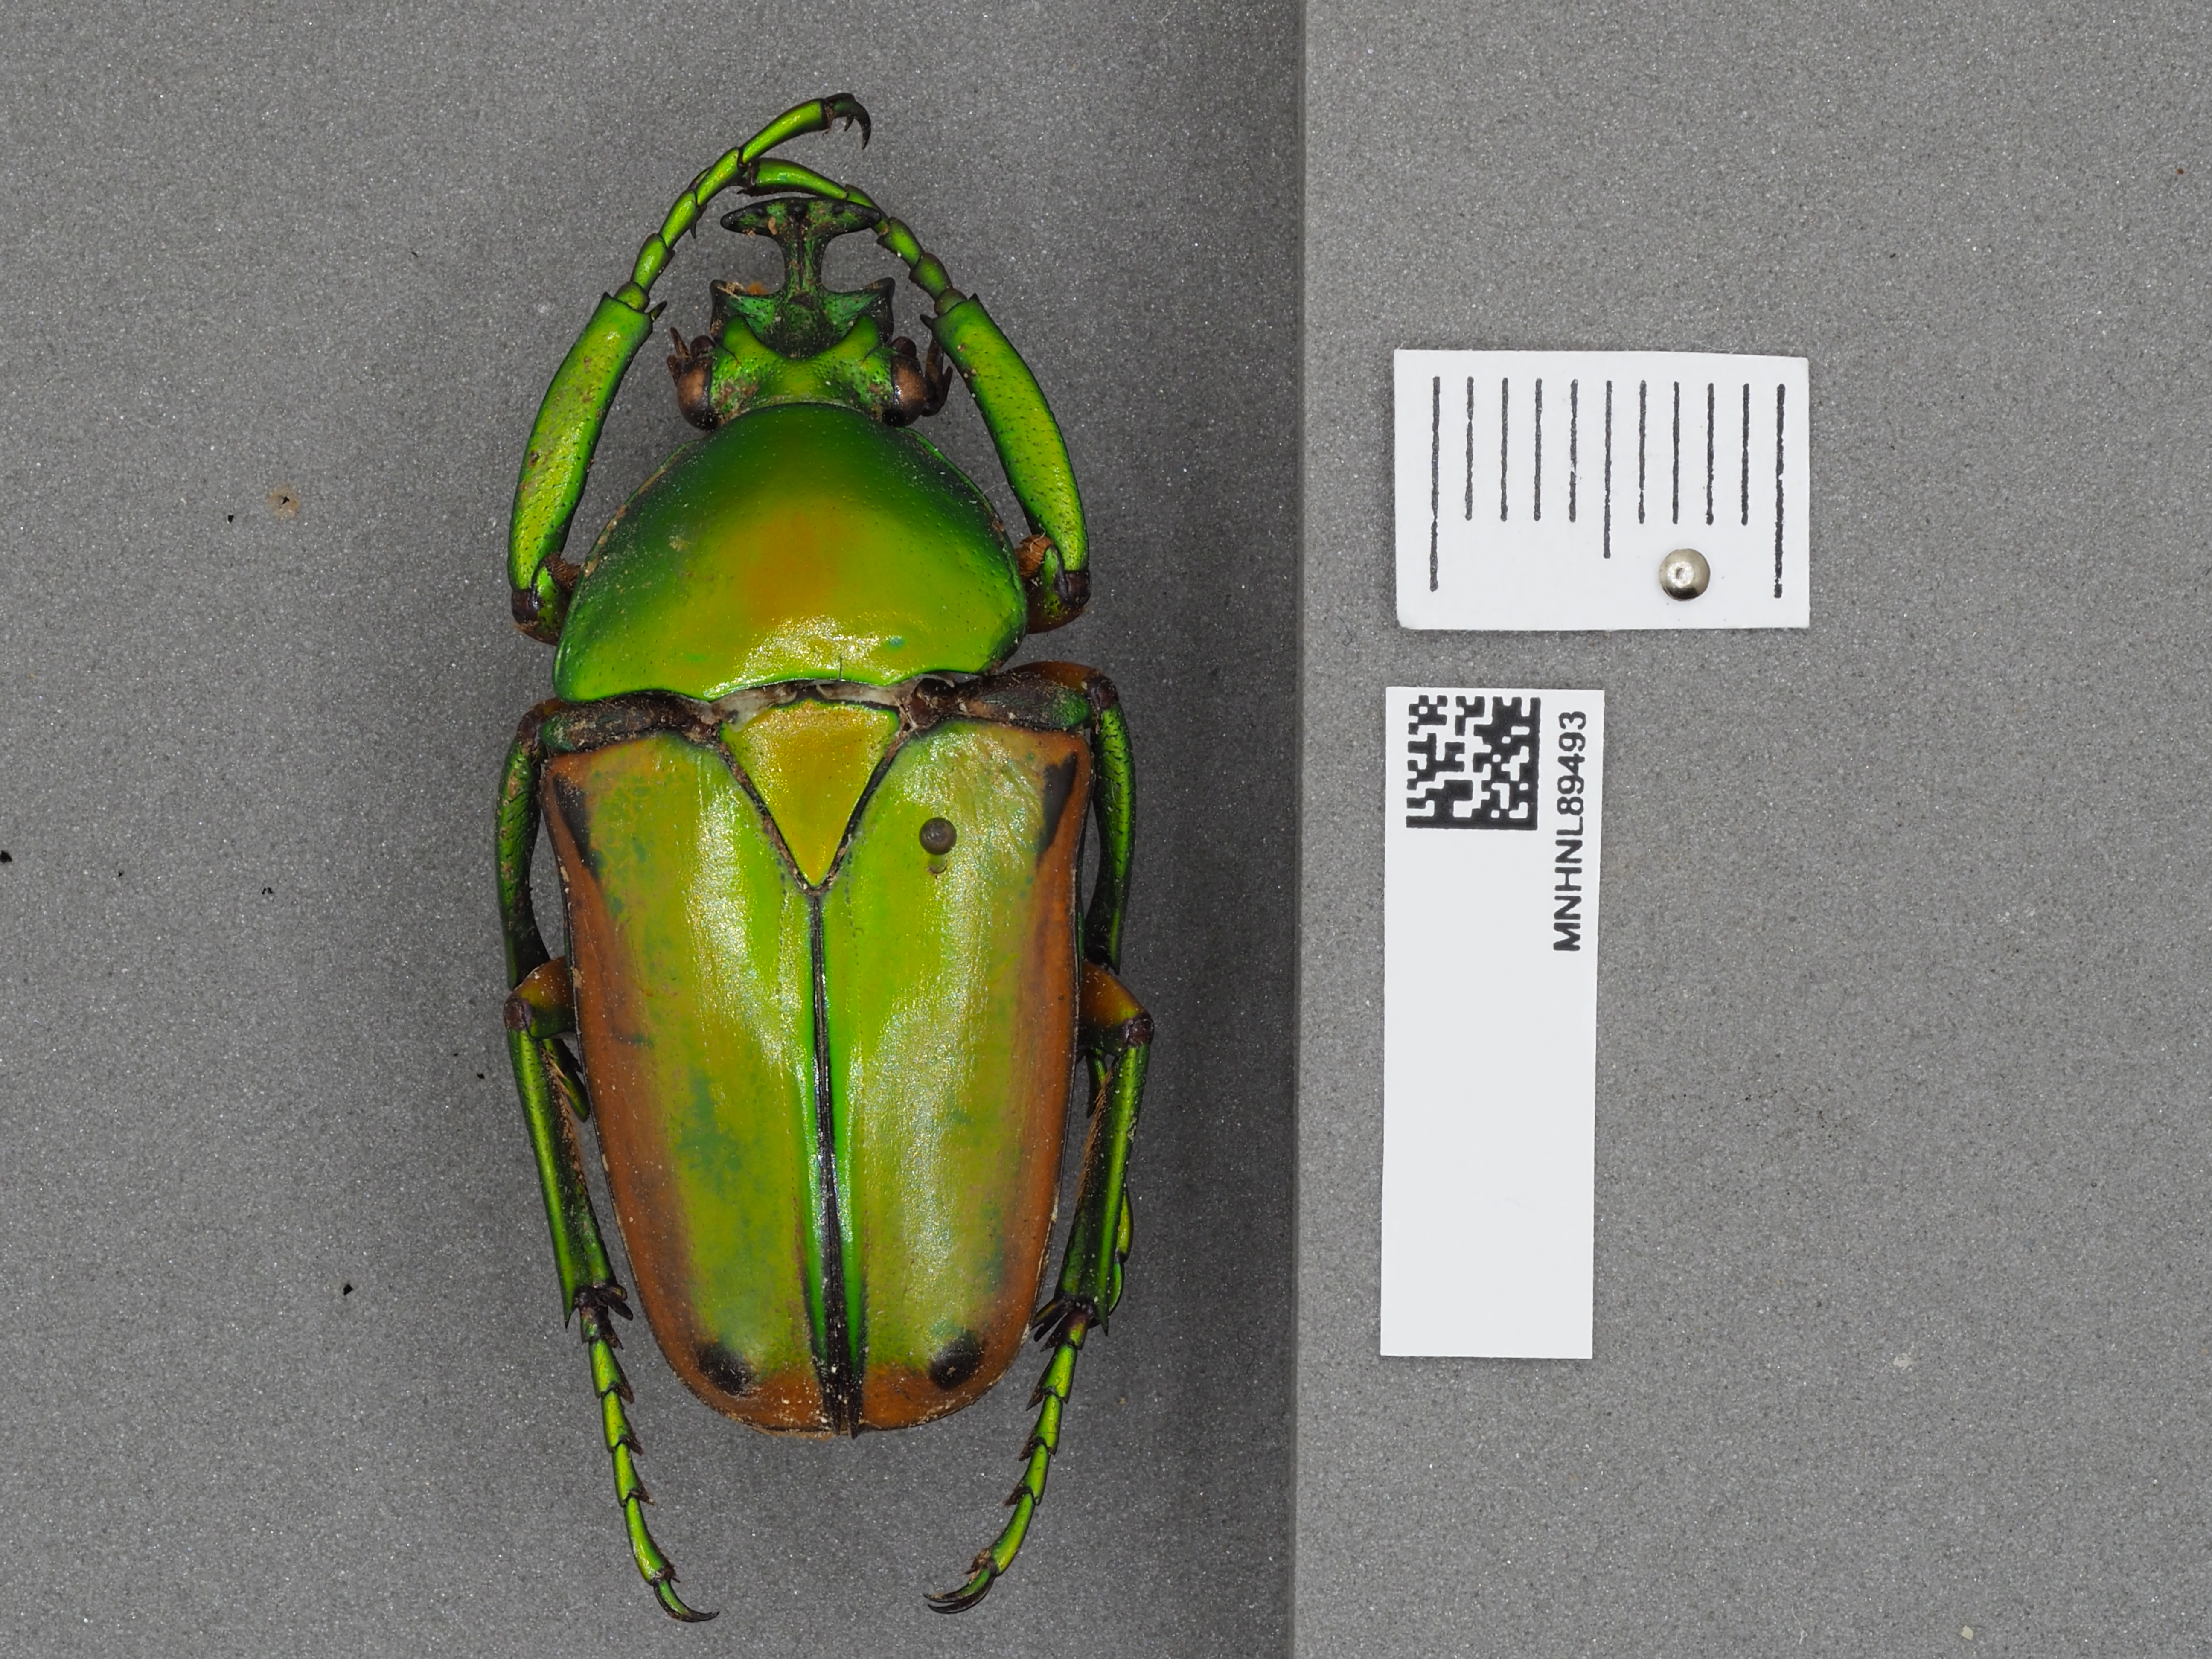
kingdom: Animalia
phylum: Arthropoda
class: Insecta
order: Coleoptera
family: Scarabaeidae
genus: Eudicella
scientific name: Eudicella aurata
